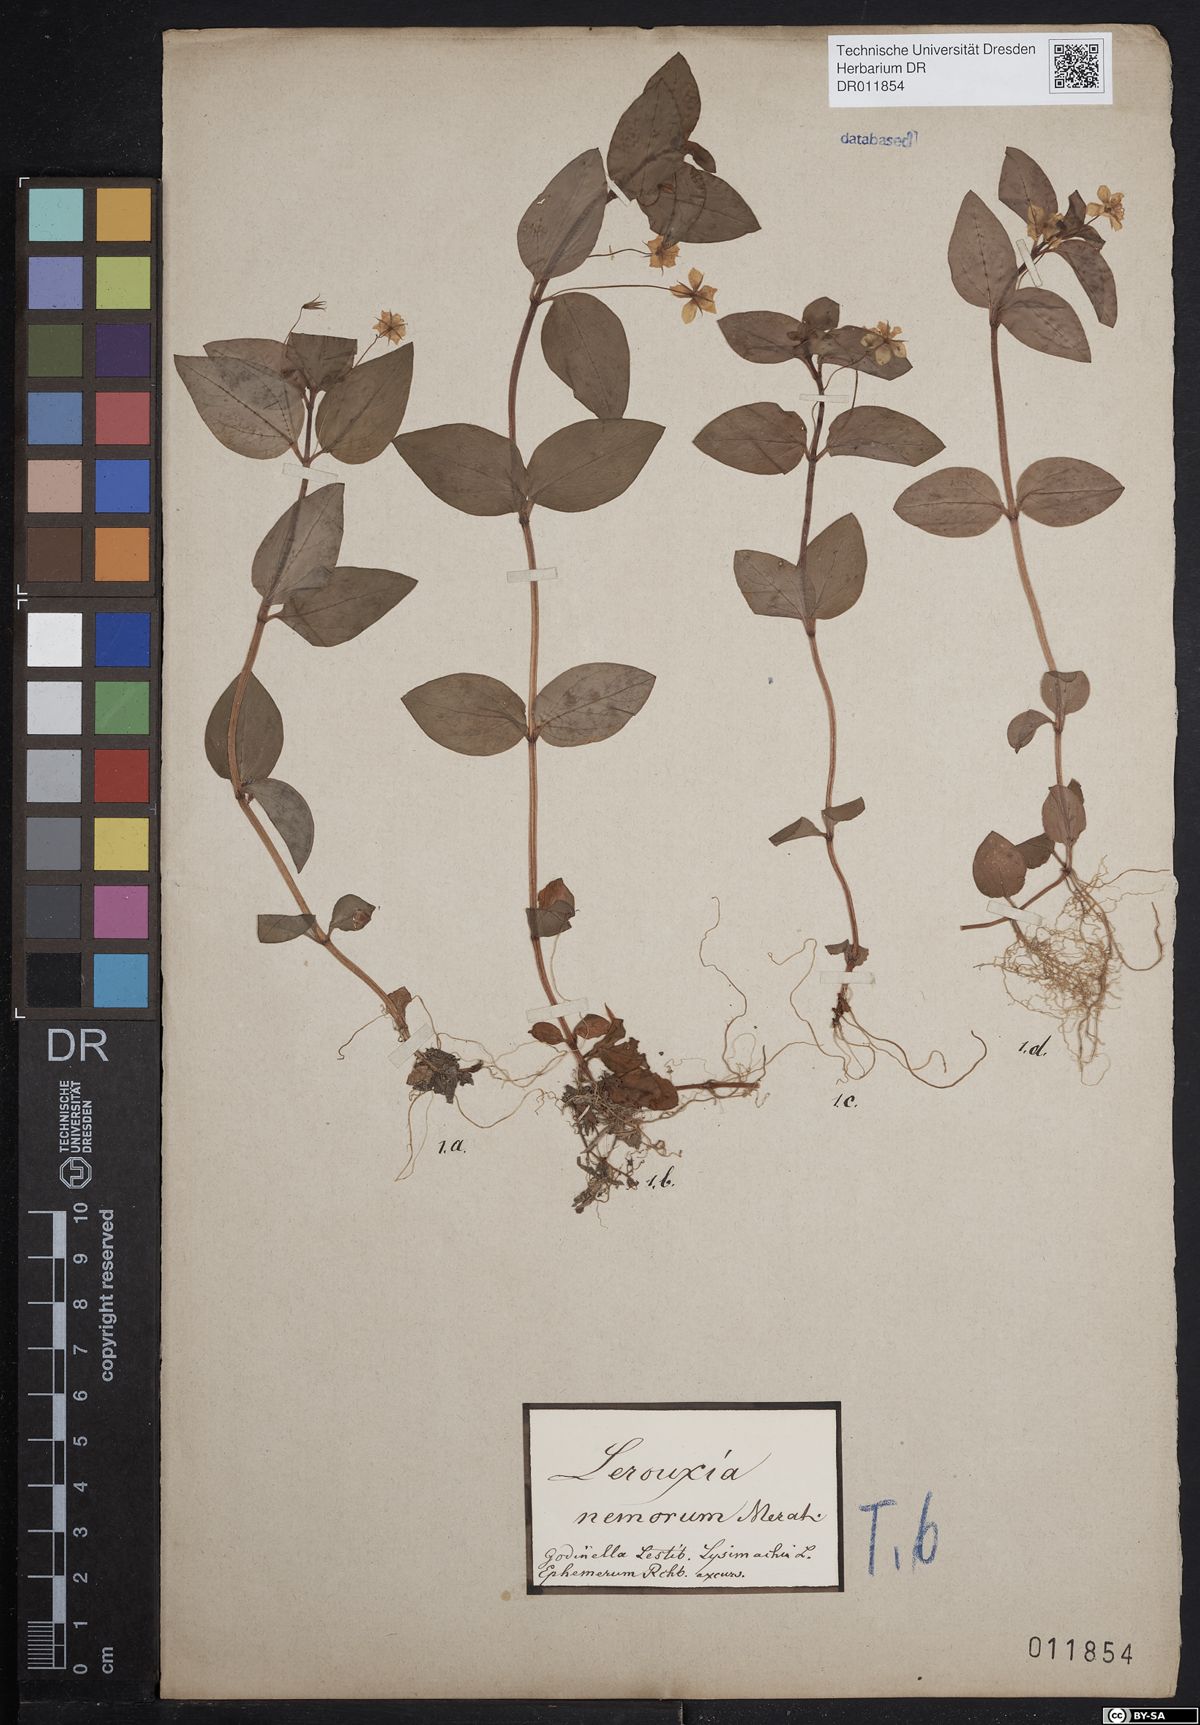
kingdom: Plantae
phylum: Tracheophyta
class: Magnoliopsida
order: Ericales
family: Primulaceae
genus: Lysimachia
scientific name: Lysimachia nemorum
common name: Yellow pimpernel
